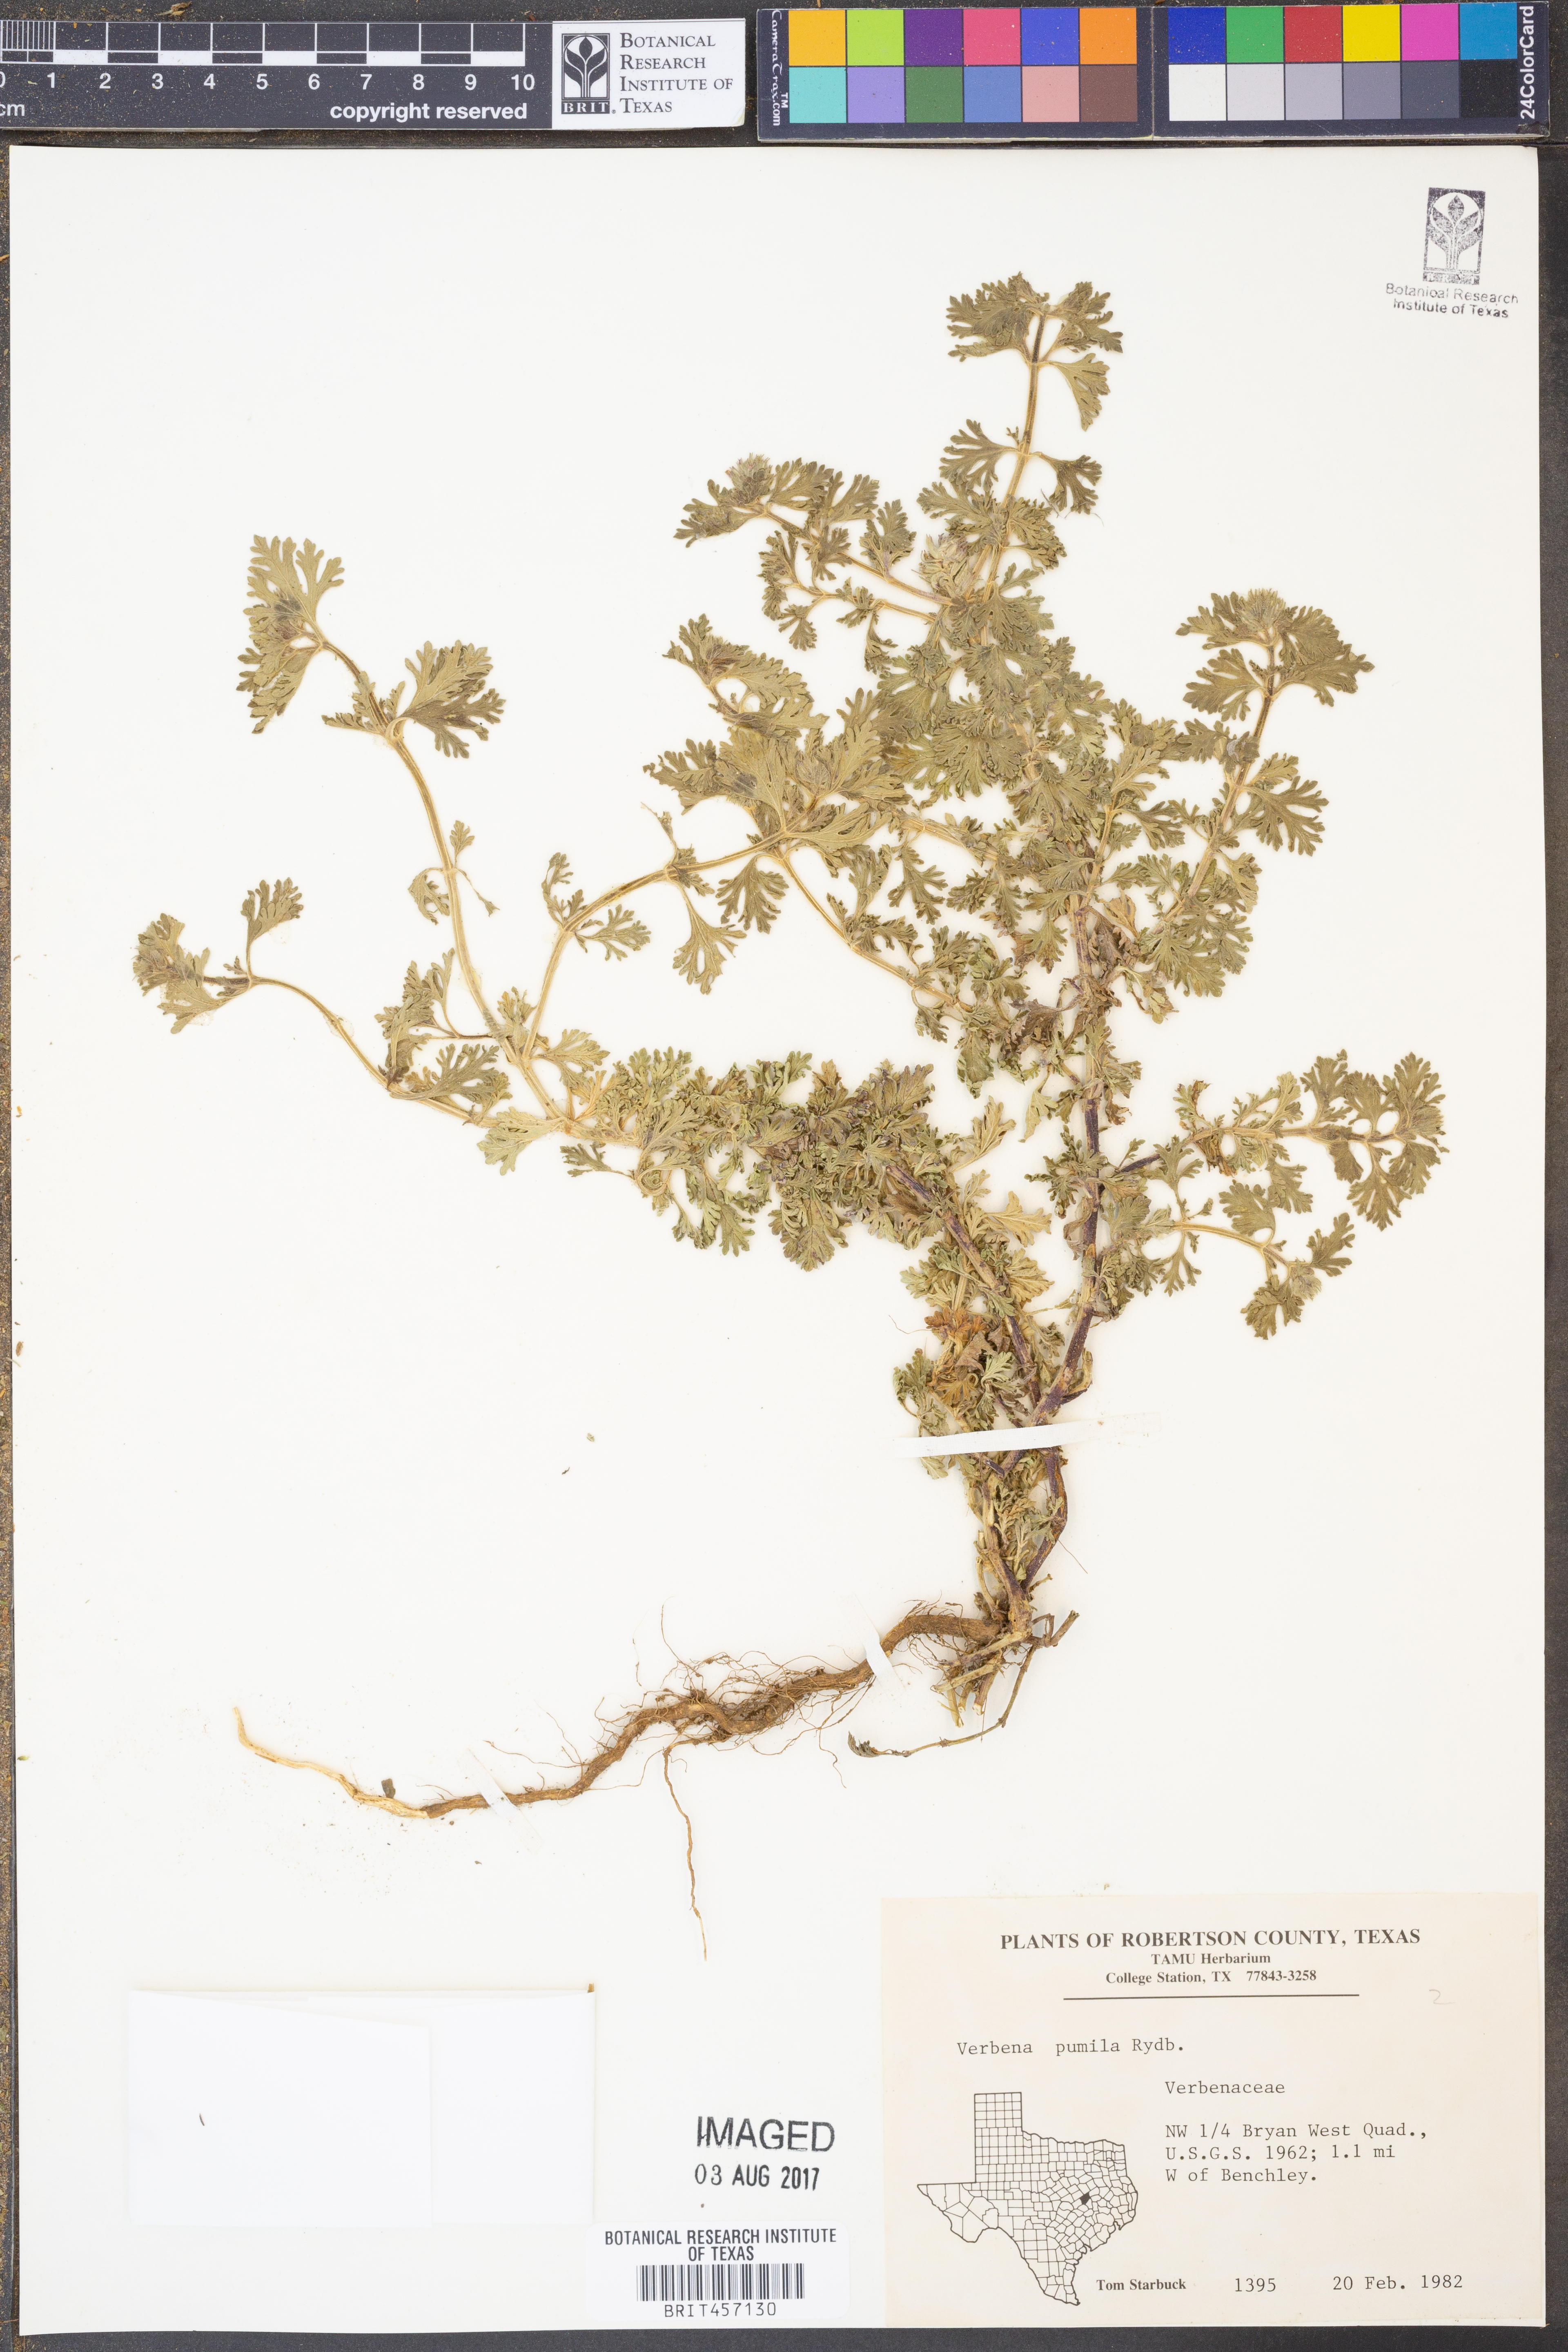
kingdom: Plantae
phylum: Tracheophyta
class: Magnoliopsida
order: Lamiales
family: Verbenaceae
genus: Verbena
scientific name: Verbena pumila
